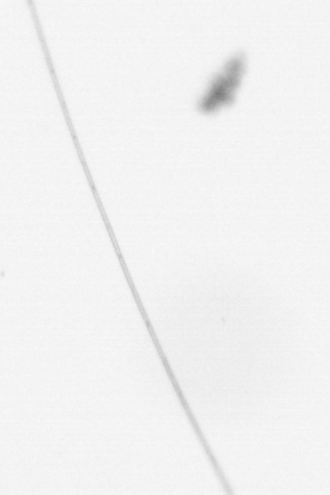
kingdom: Chromista
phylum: Ochrophyta
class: Bacillariophyceae
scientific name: Bacillariophyceae
